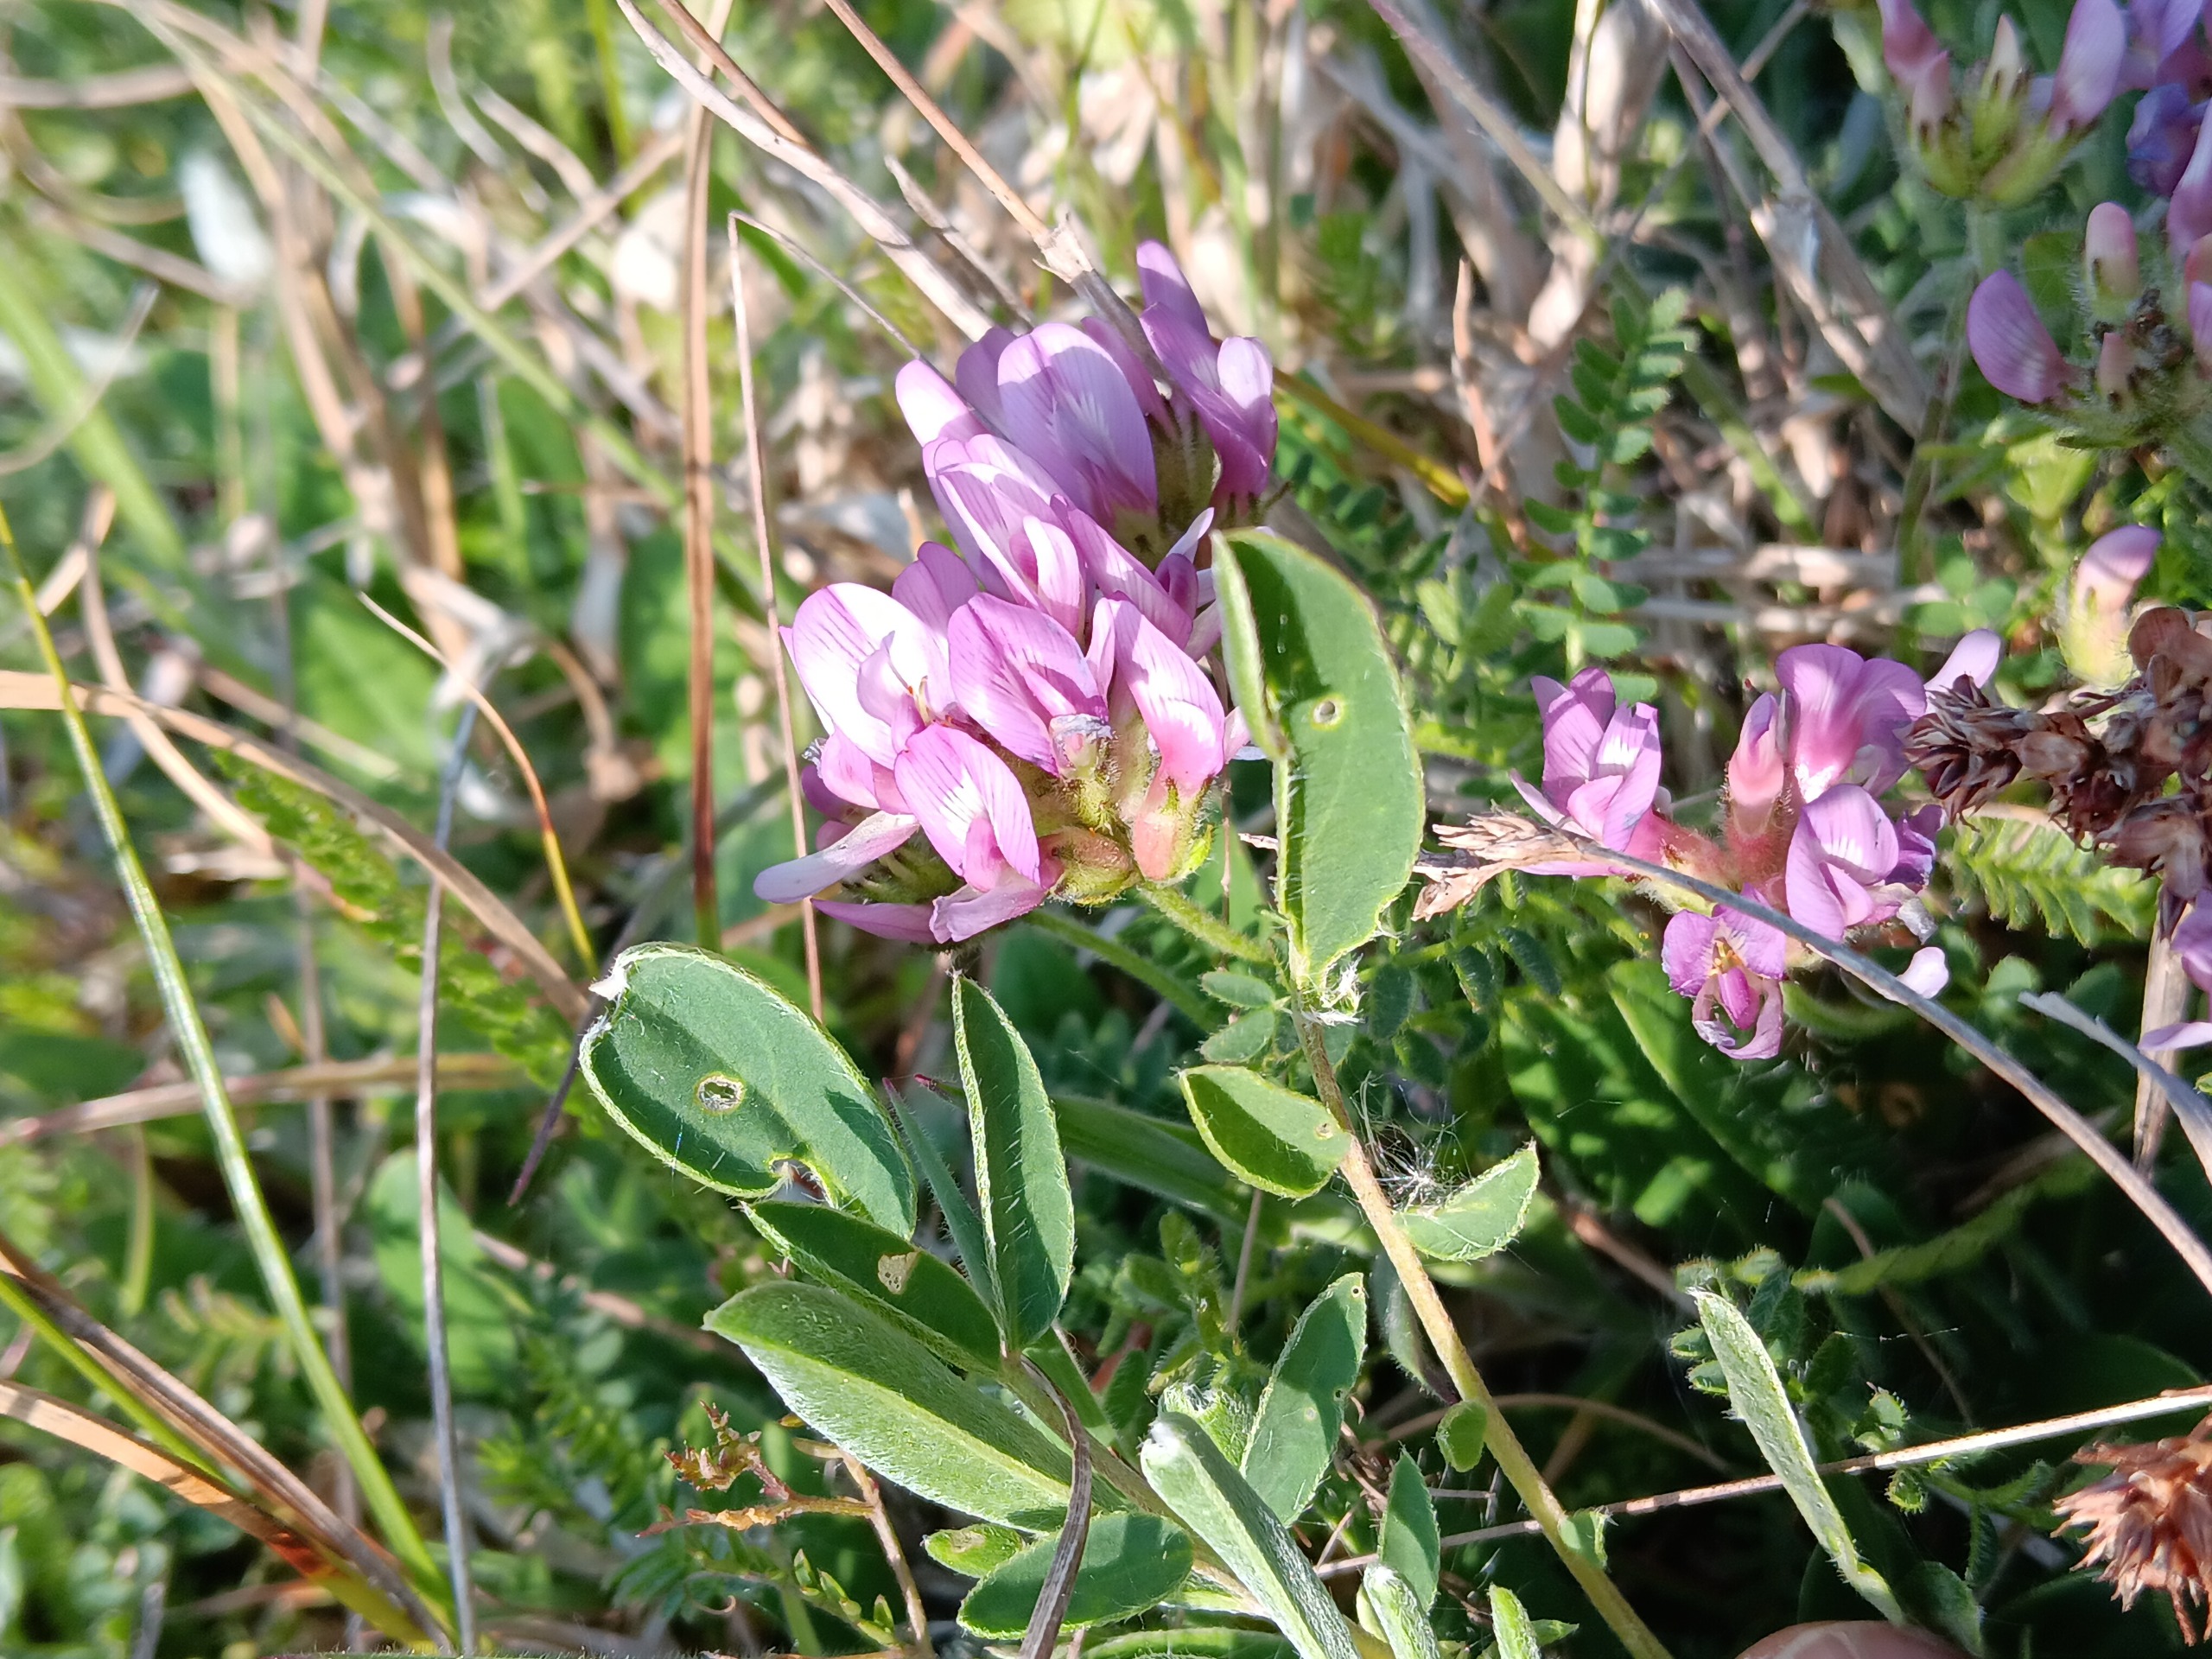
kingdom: Plantae
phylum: Tracheophyta
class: Magnoliopsida
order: Fabales
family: Fabaceae
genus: Astragalus
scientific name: Astragalus danicus
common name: Dansk astragel
